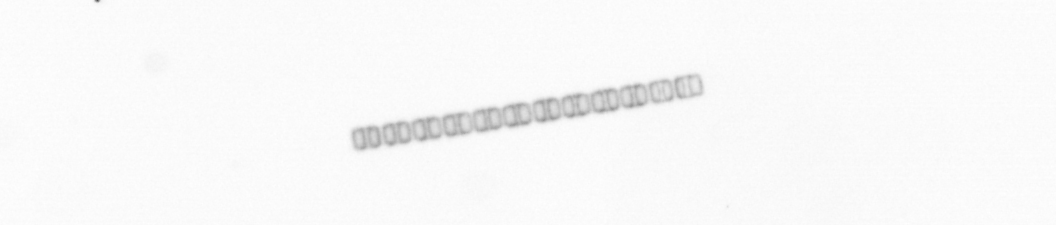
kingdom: Chromista
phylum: Ochrophyta
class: Bacillariophyceae
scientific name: Bacillariophyceae
